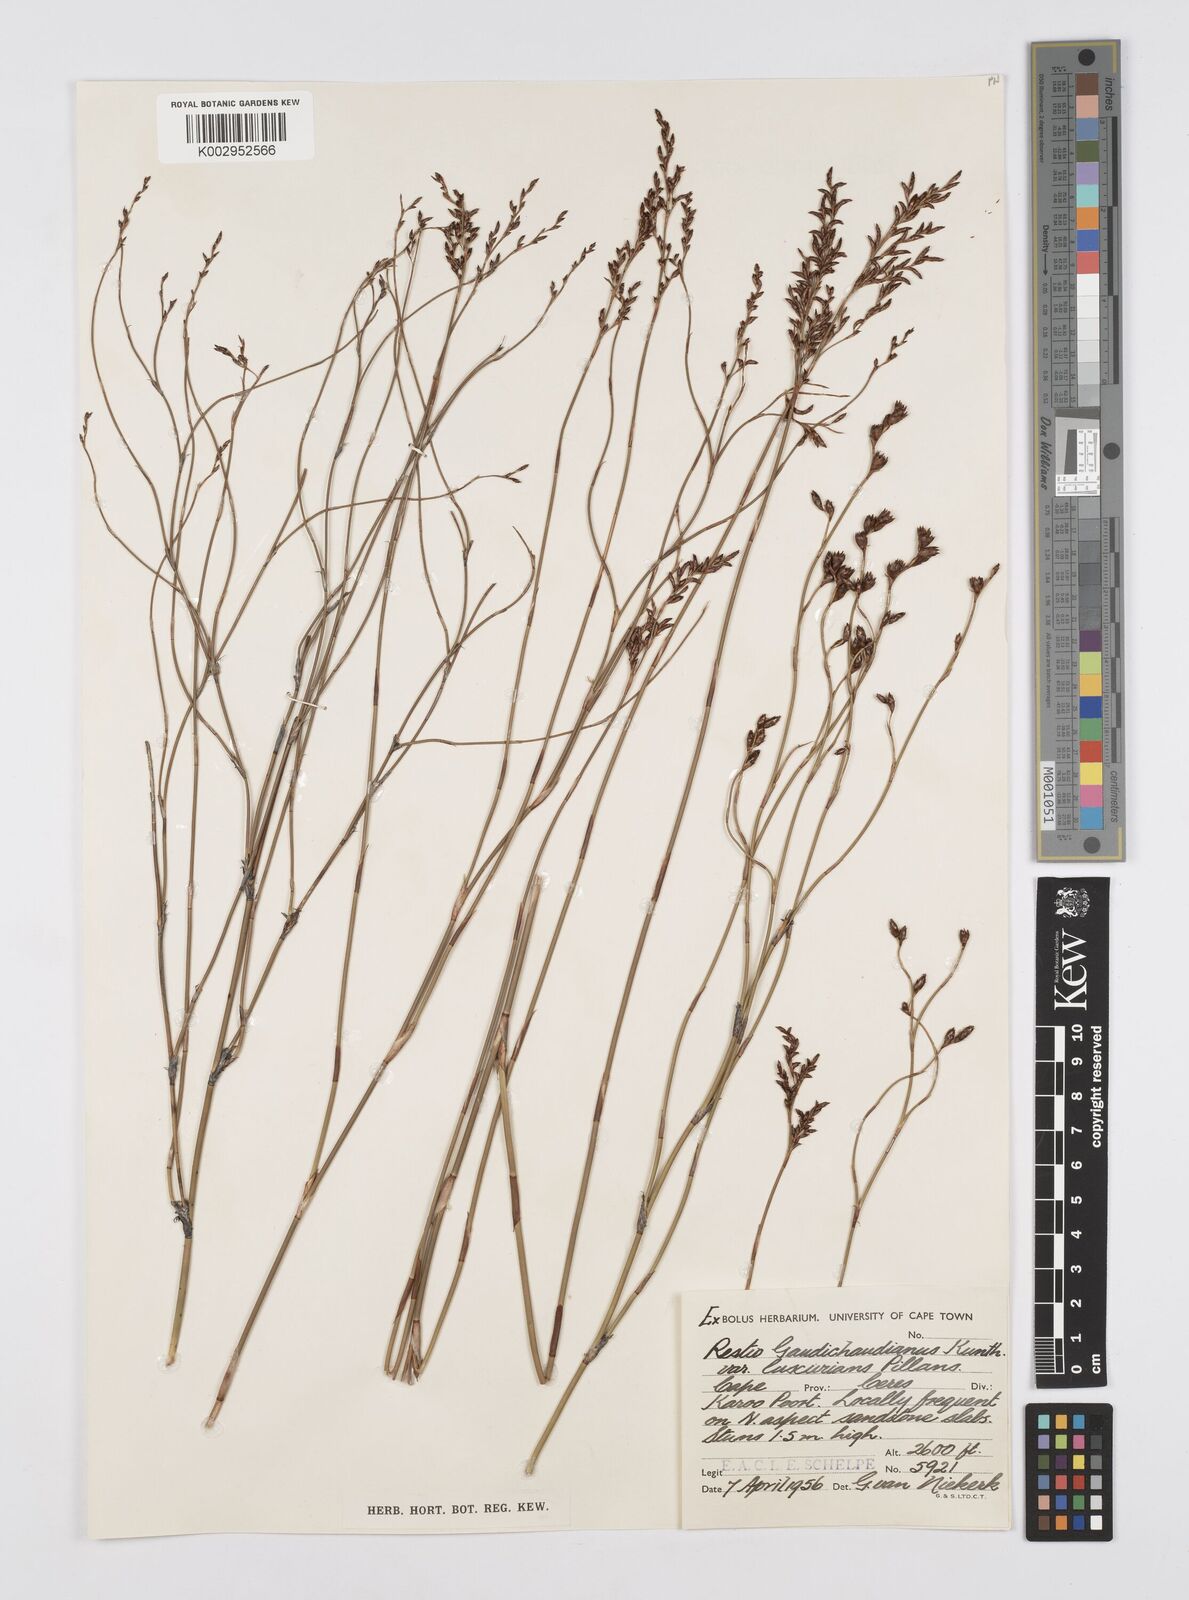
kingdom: Plantae
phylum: Tracheophyta
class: Liliopsida
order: Poales
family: Restionaceae
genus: Restio
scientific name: Restio luxurians
